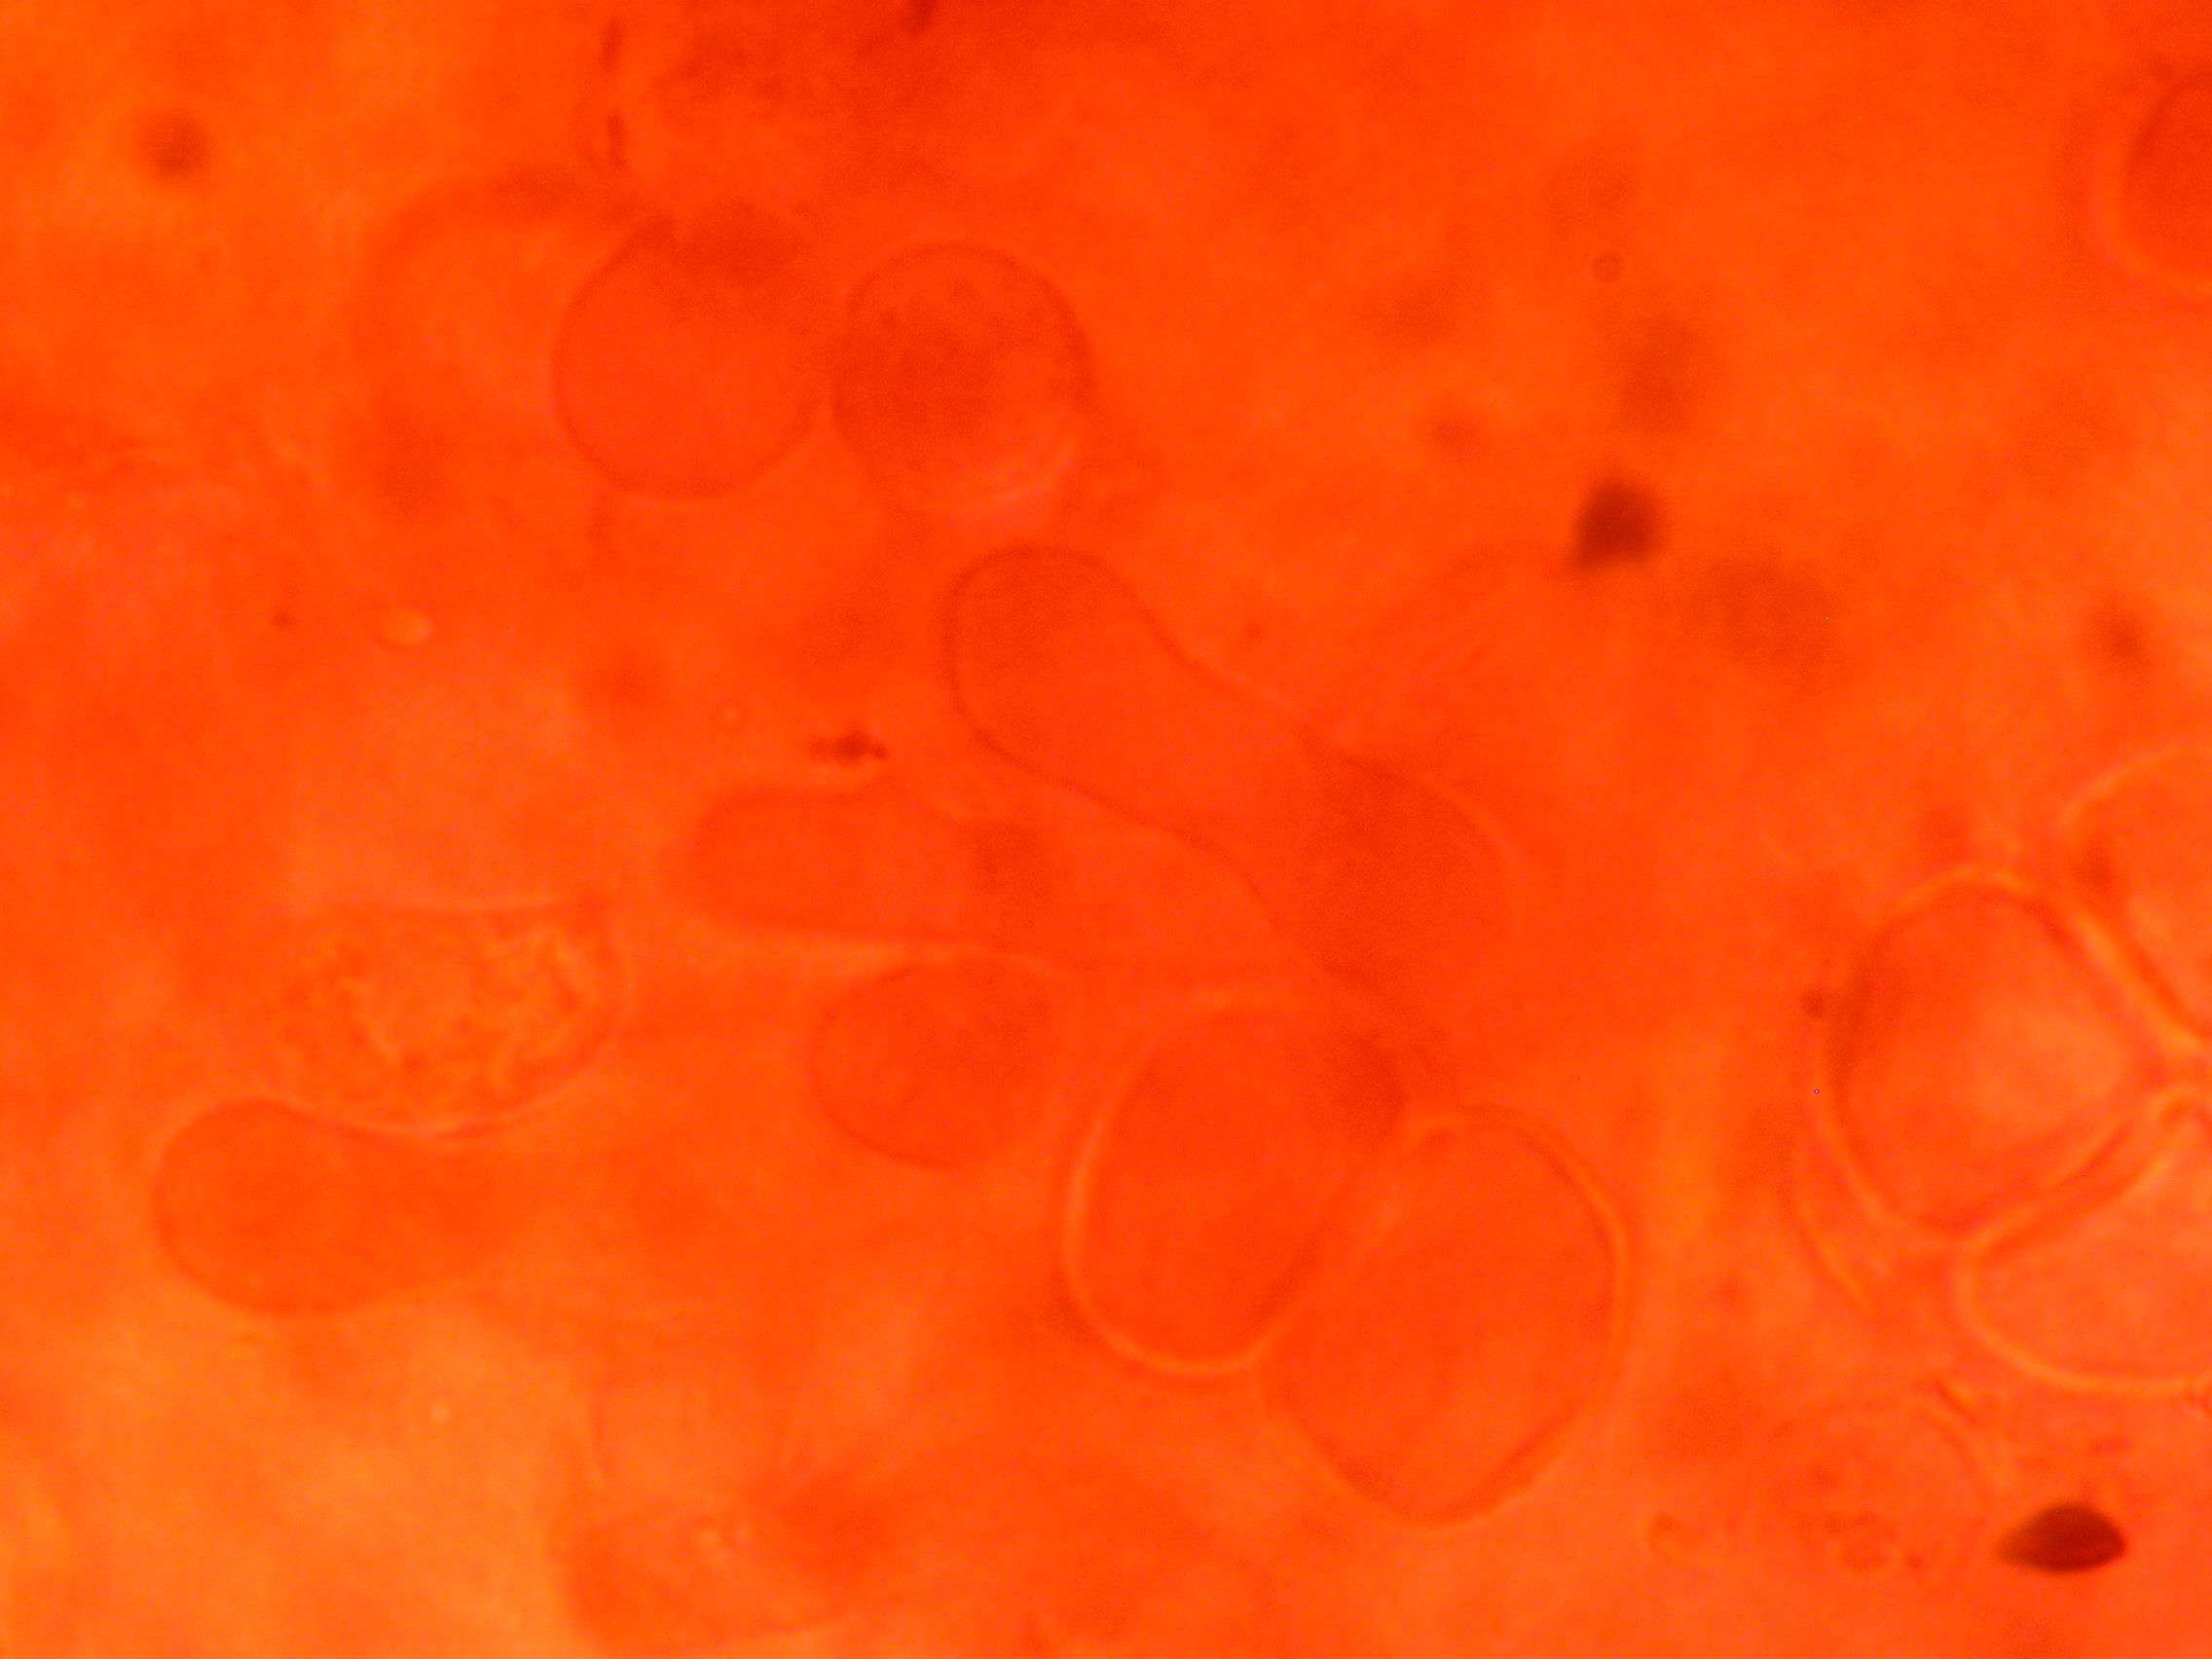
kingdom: Fungi
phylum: Basidiomycota
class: Agaricomycetes
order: Hymenochaetales
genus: Kurtia
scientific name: Kurtia argillacea
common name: Kurts kalkskind
